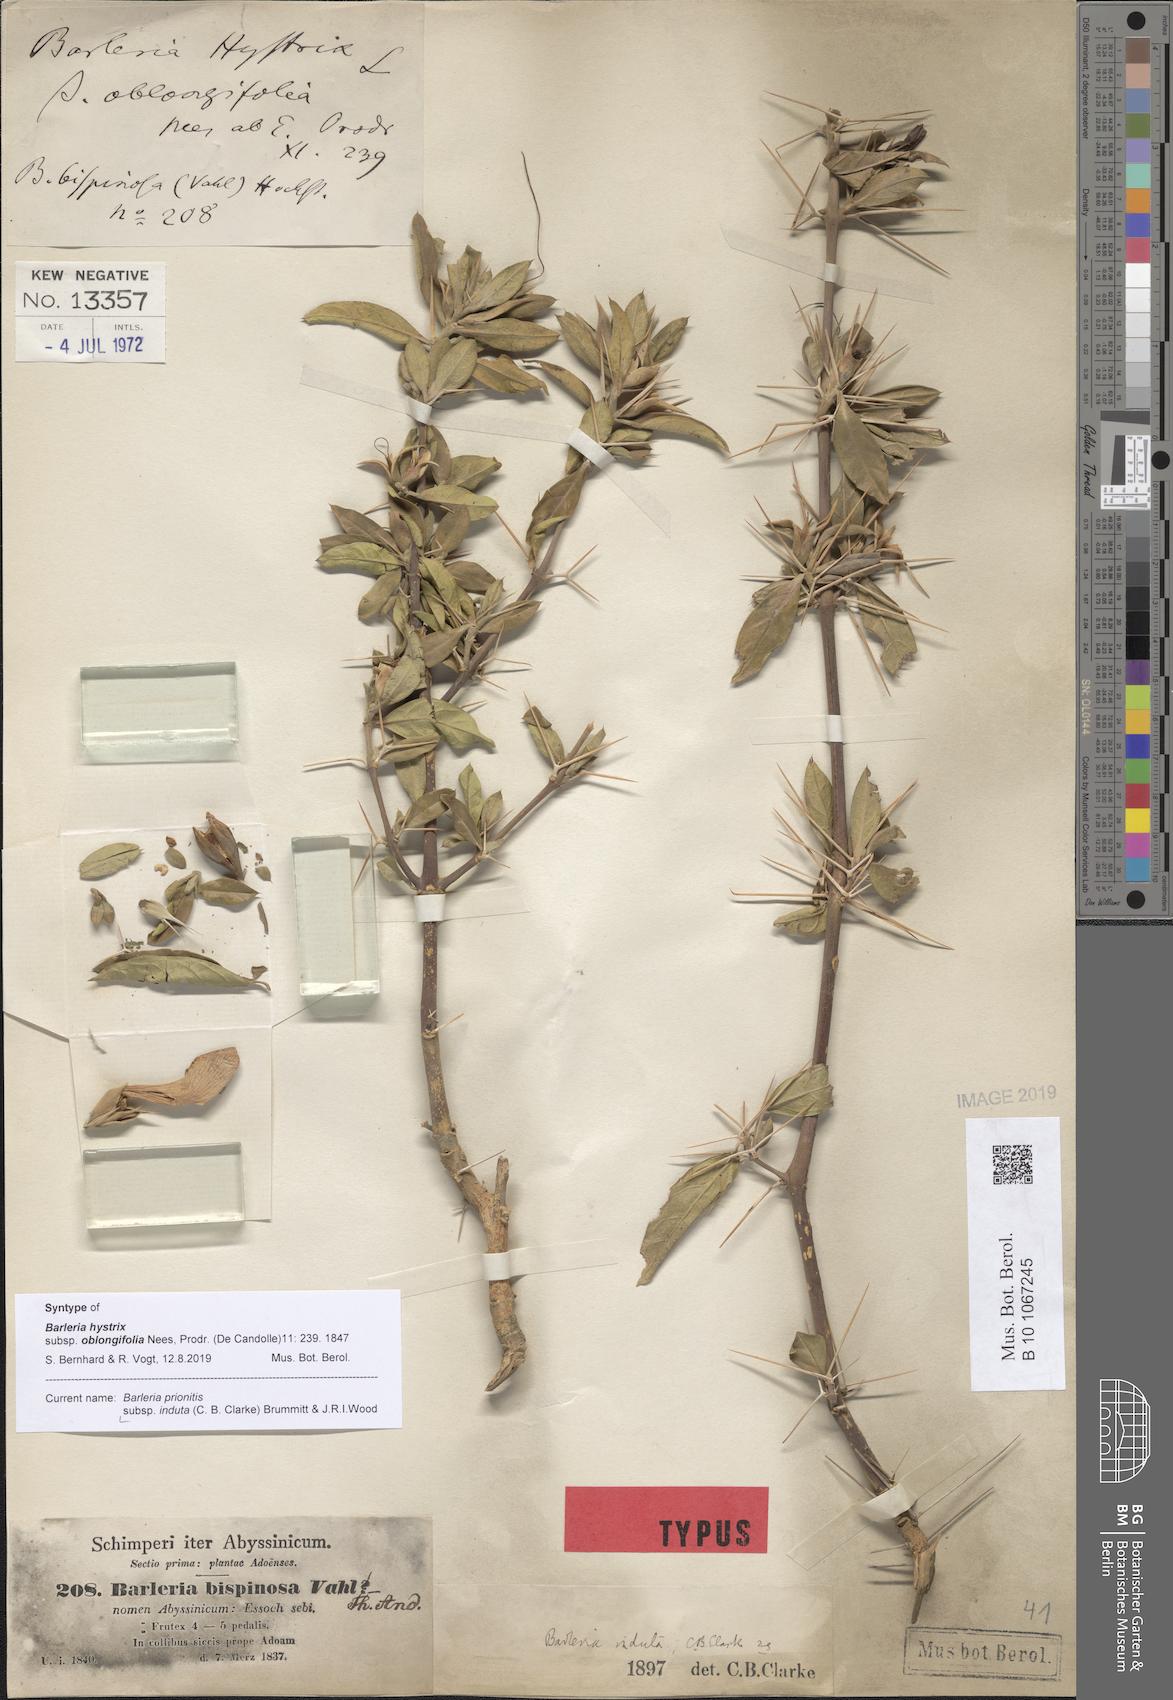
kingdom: Plantae
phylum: Tracheophyta
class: Magnoliopsida
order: Lamiales
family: Acanthaceae
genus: Barleria
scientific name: Barleria prionitis
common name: Barleria
